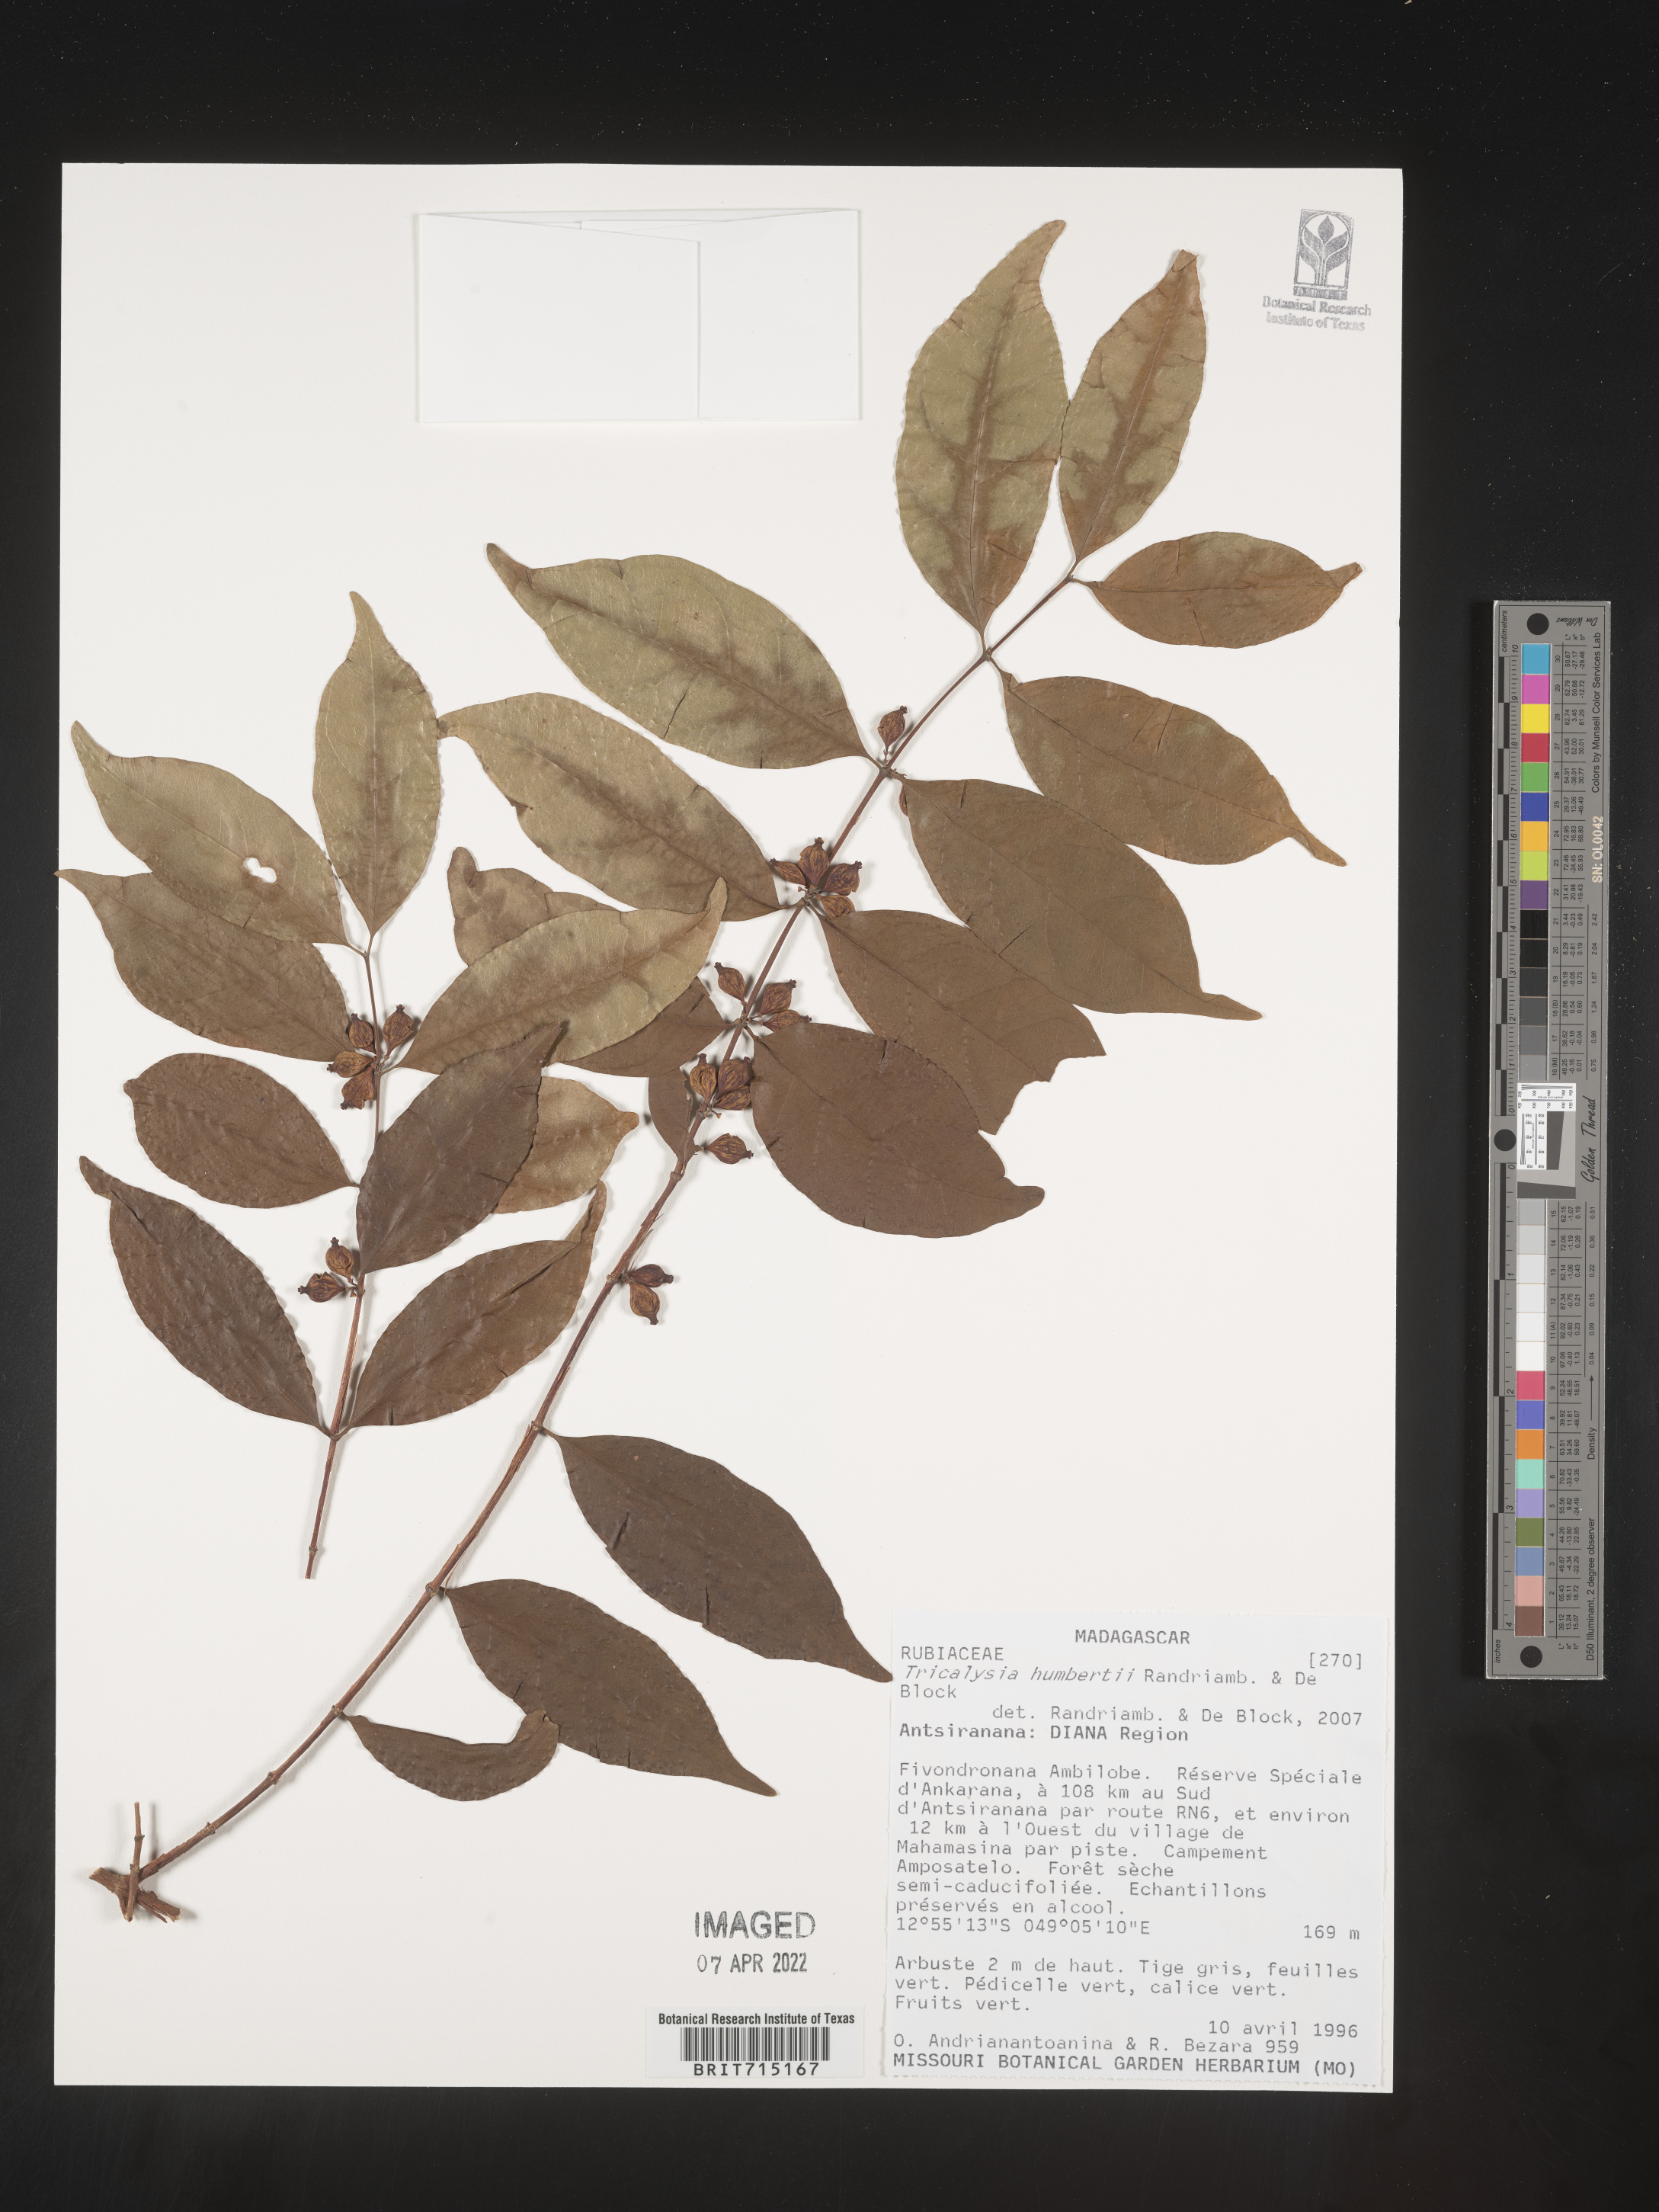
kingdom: Plantae
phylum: Tracheophyta
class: Magnoliopsida
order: Gentianales
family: Rubiaceae
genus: Tricalysia
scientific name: Tricalysia
